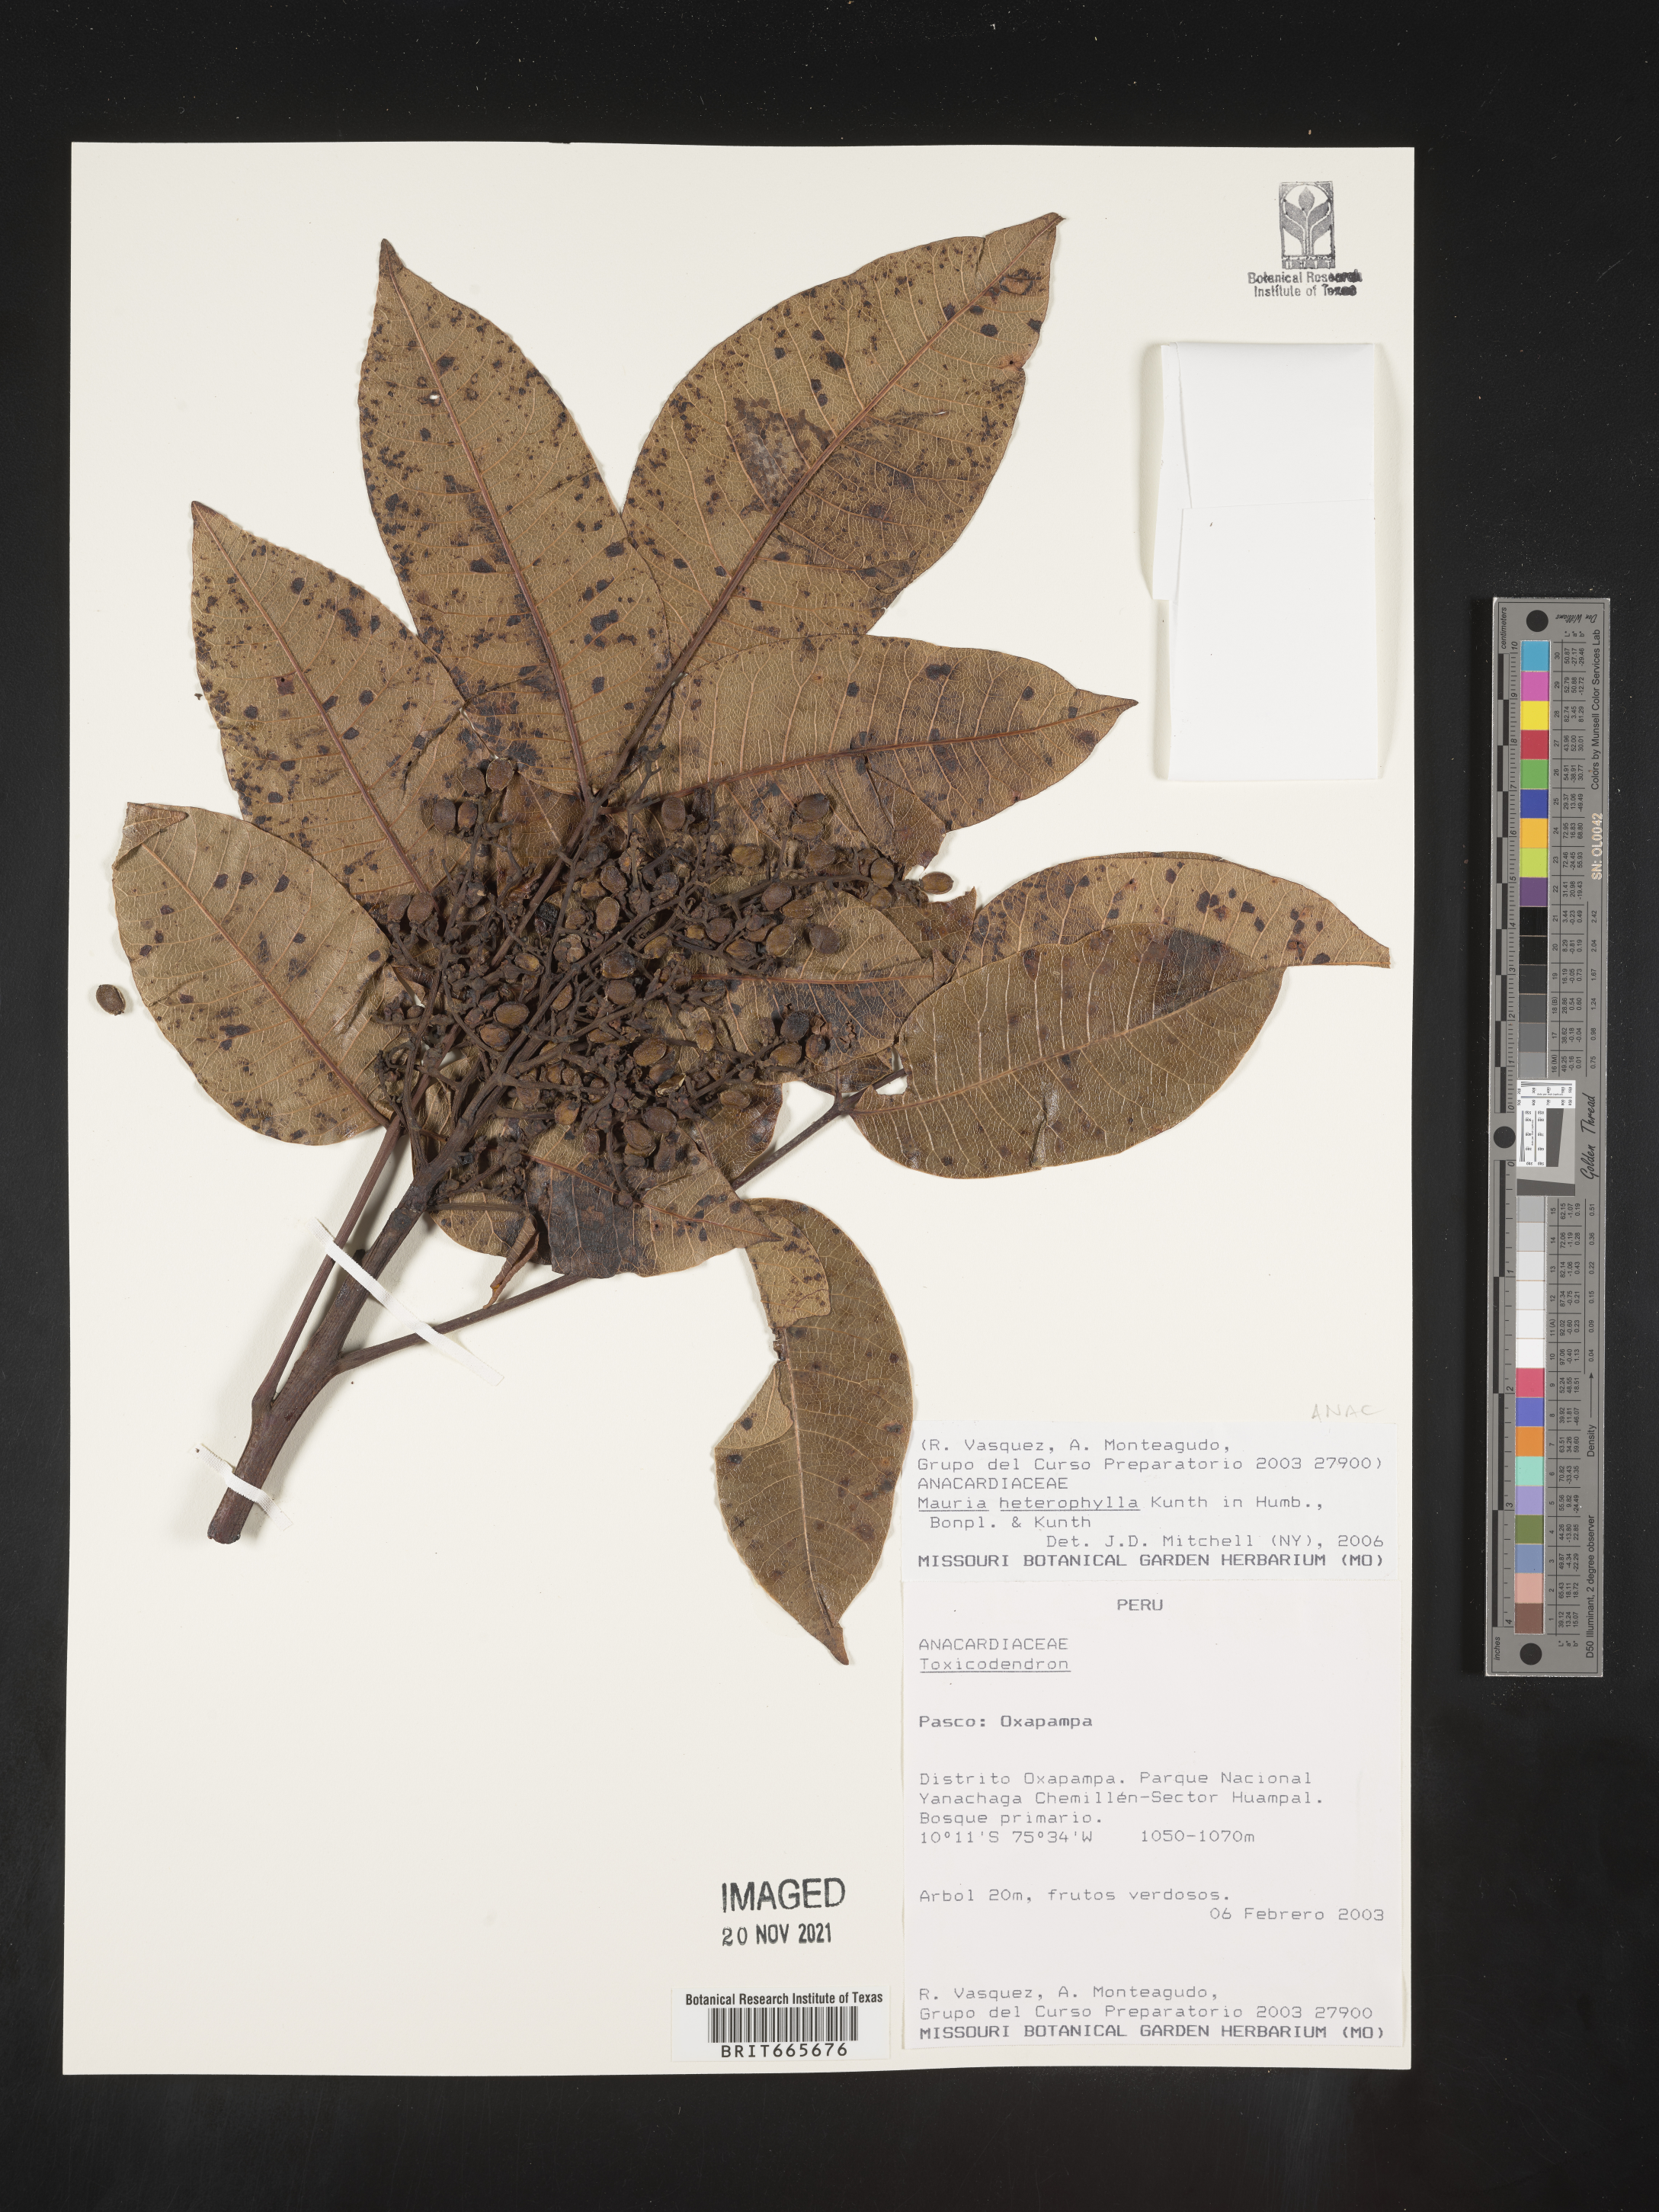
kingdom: Plantae
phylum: Tracheophyta
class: Magnoliopsida
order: Sapindales
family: Anacardiaceae
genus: Mauria
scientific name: Mauria
